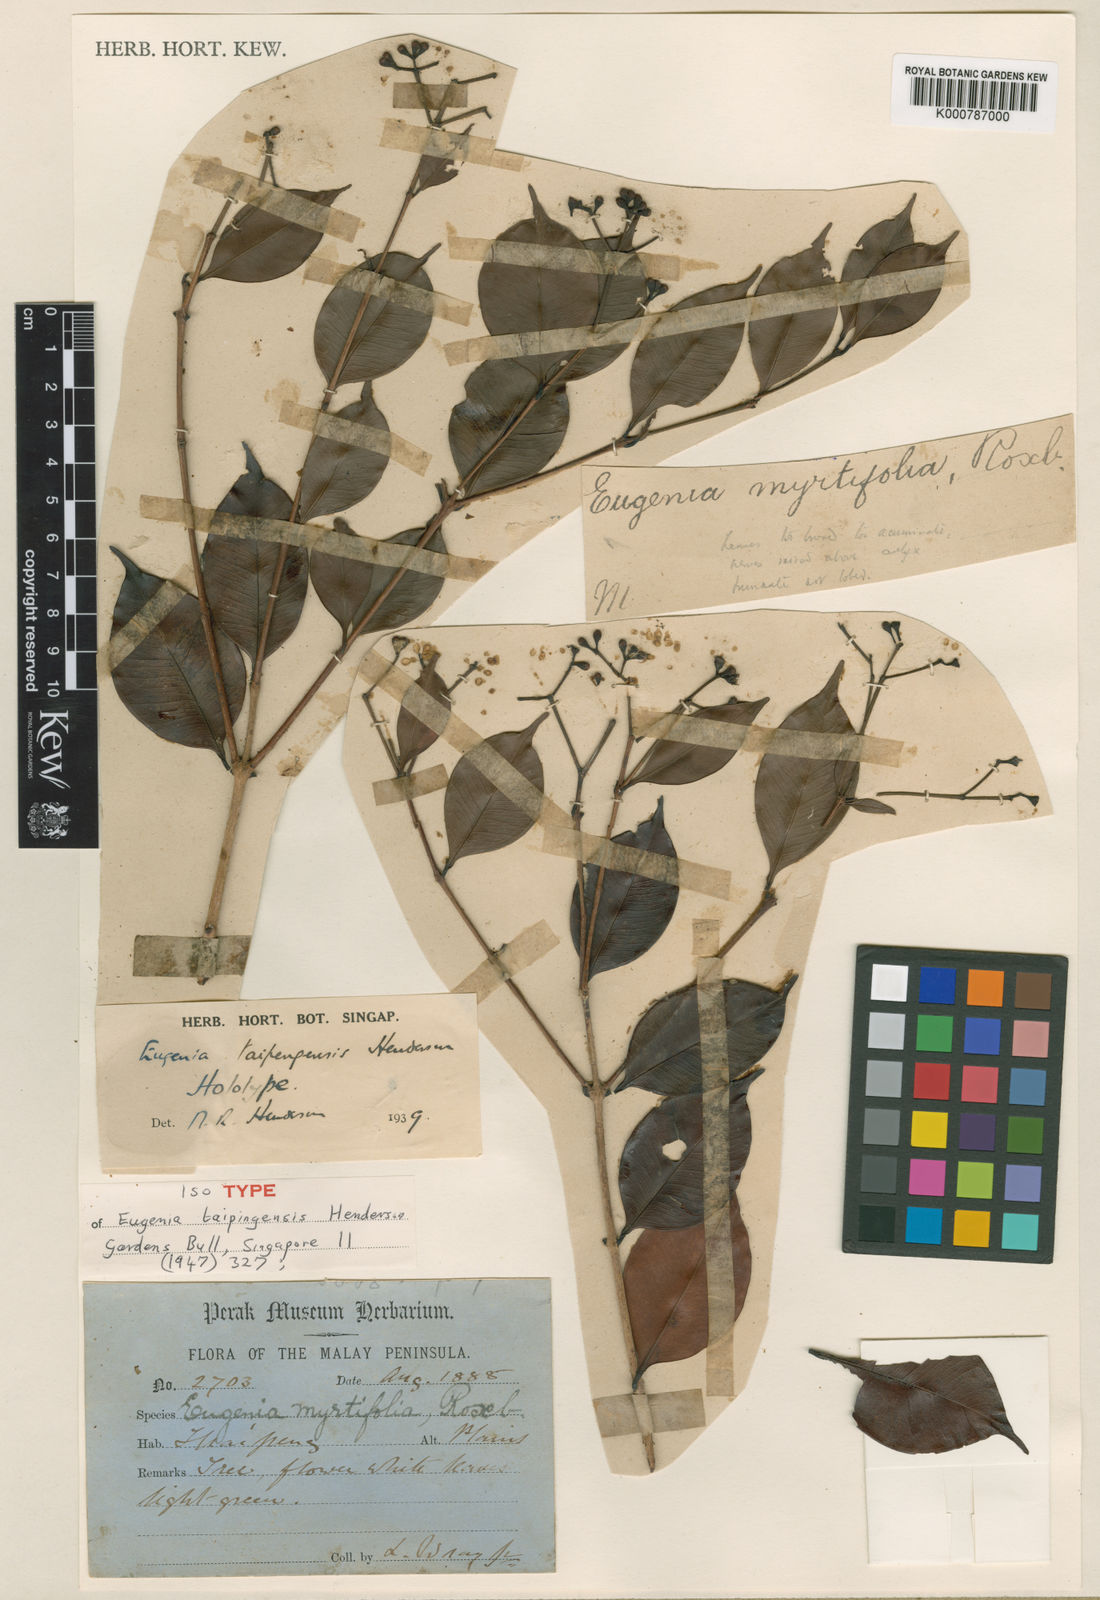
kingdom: Plantae
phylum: Tracheophyta
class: Magnoliopsida
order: Myrtales
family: Myrtaceae
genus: Syzygium
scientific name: Syzygium taipingense
